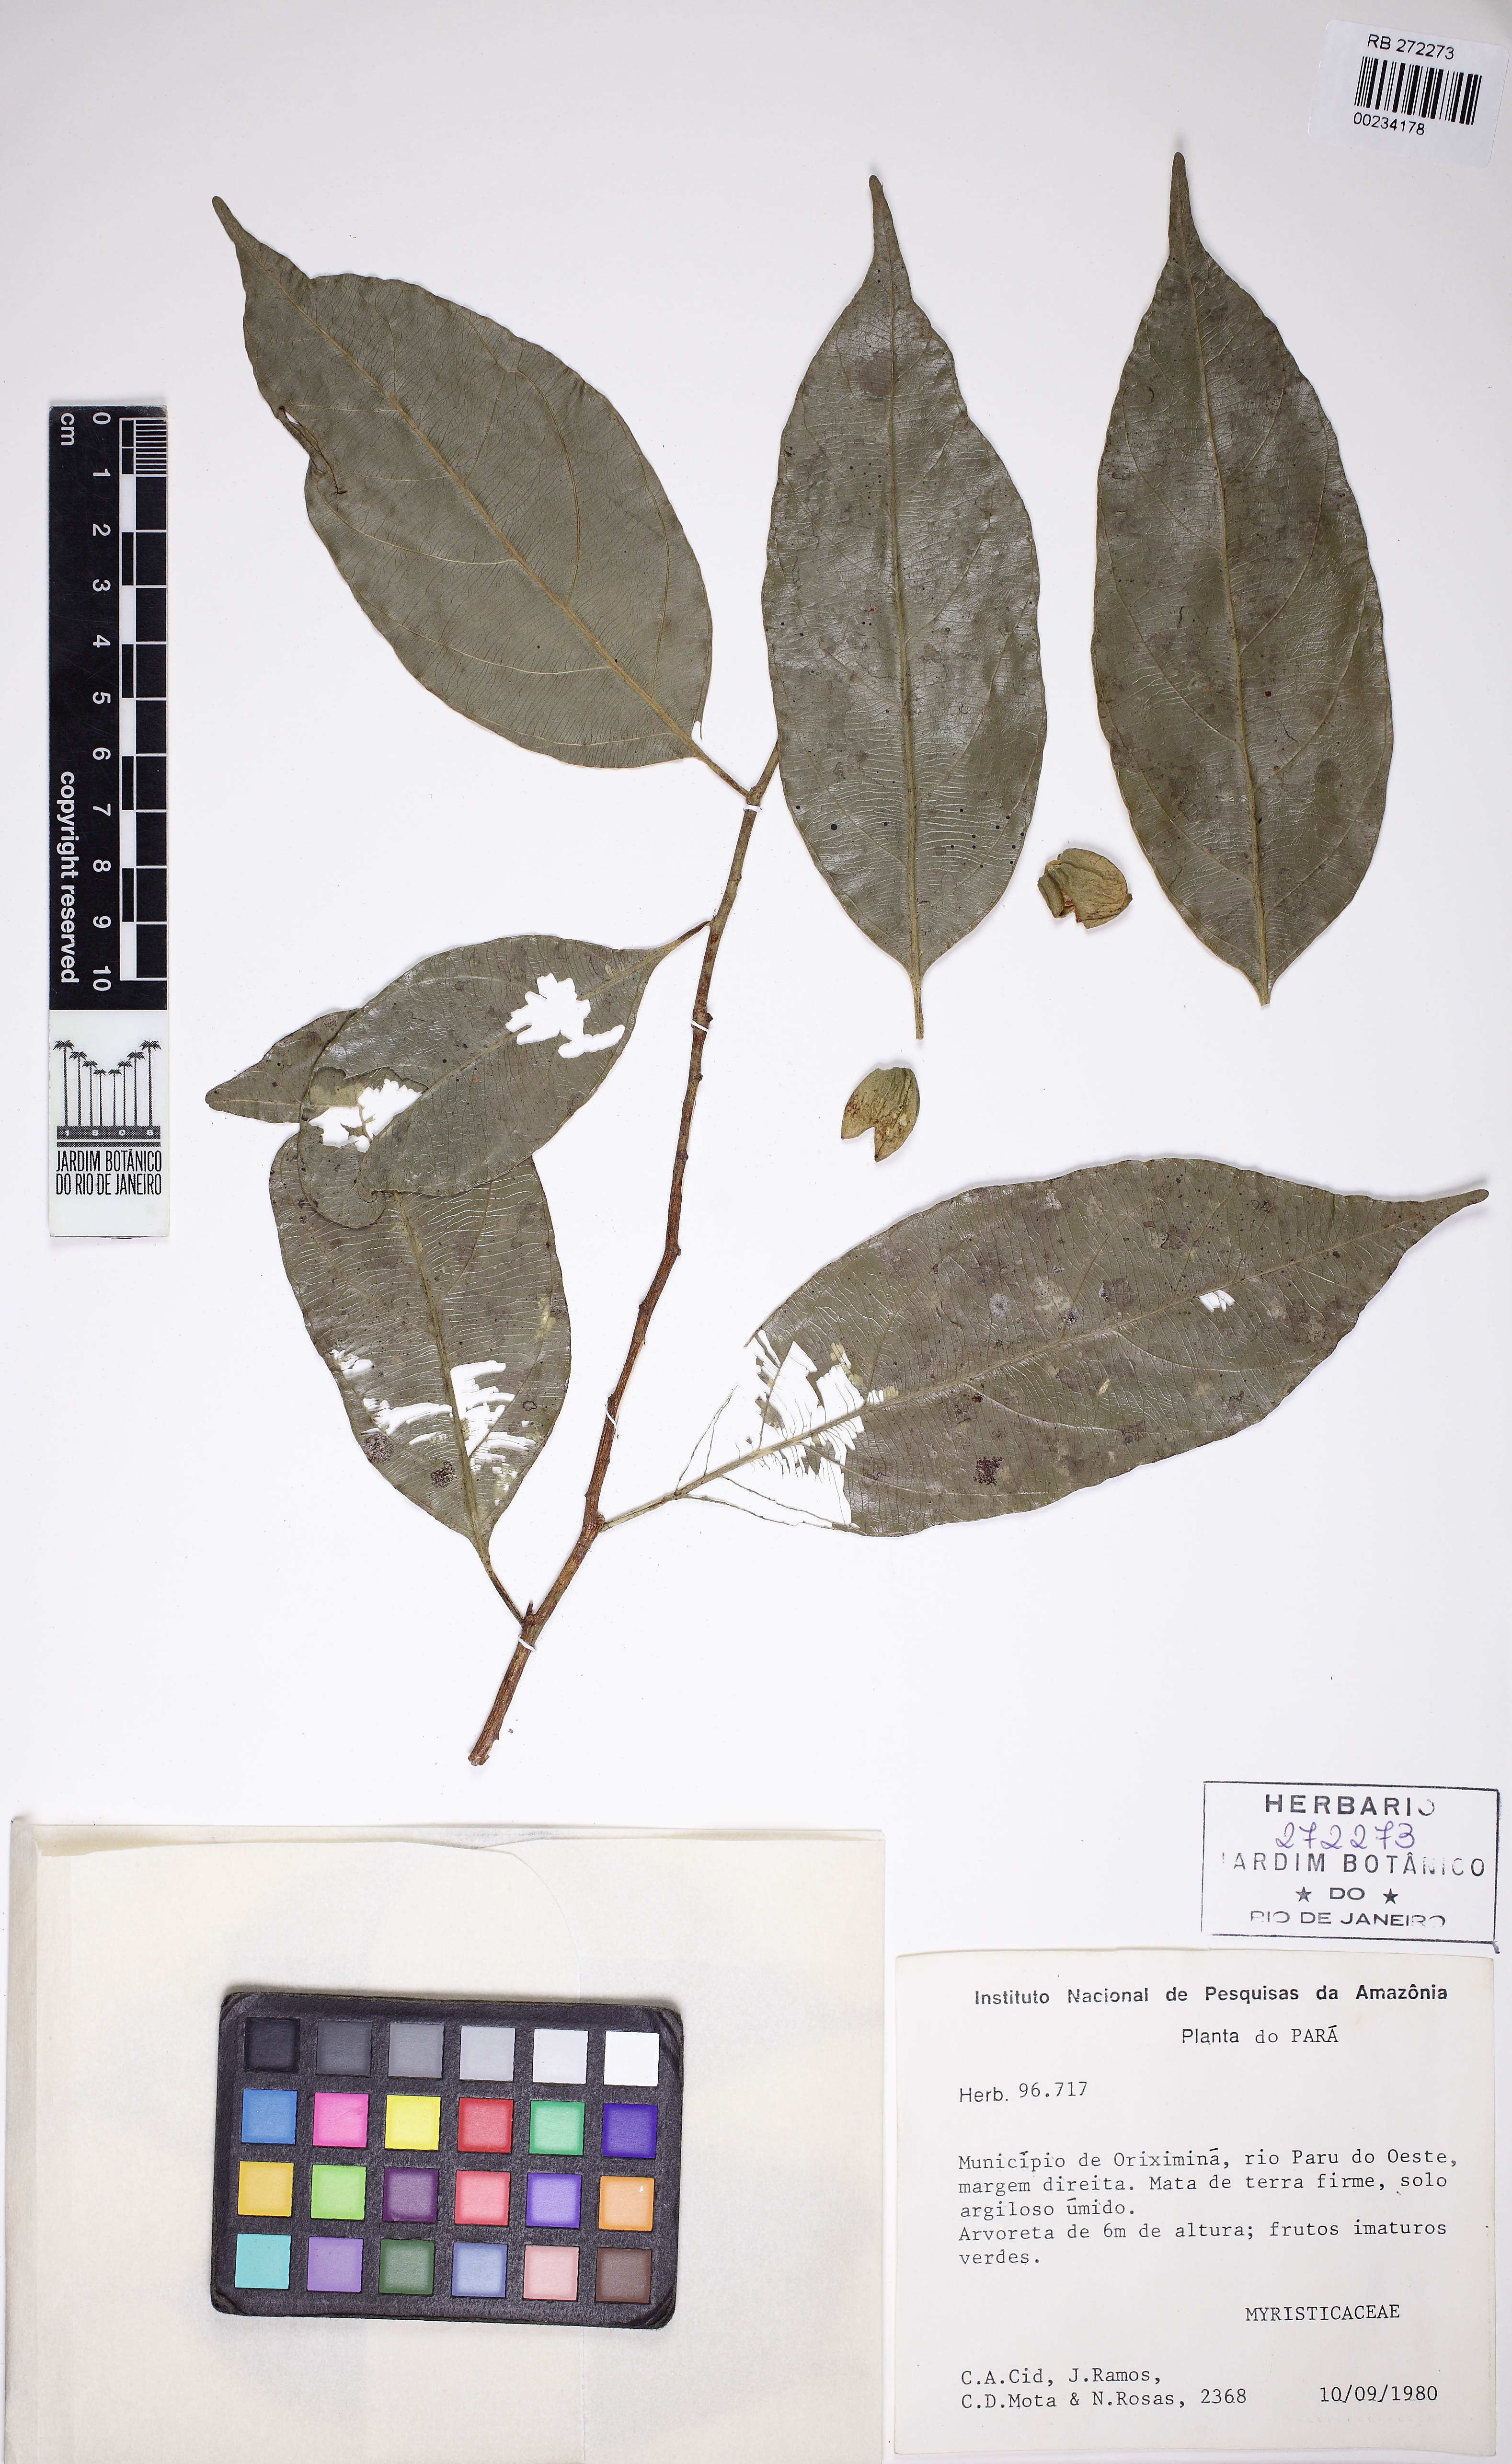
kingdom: Plantae
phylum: Tracheophyta
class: Magnoliopsida
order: Magnoliales
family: Myristicaceae
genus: Compsoneura
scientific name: Compsoneura ulei
